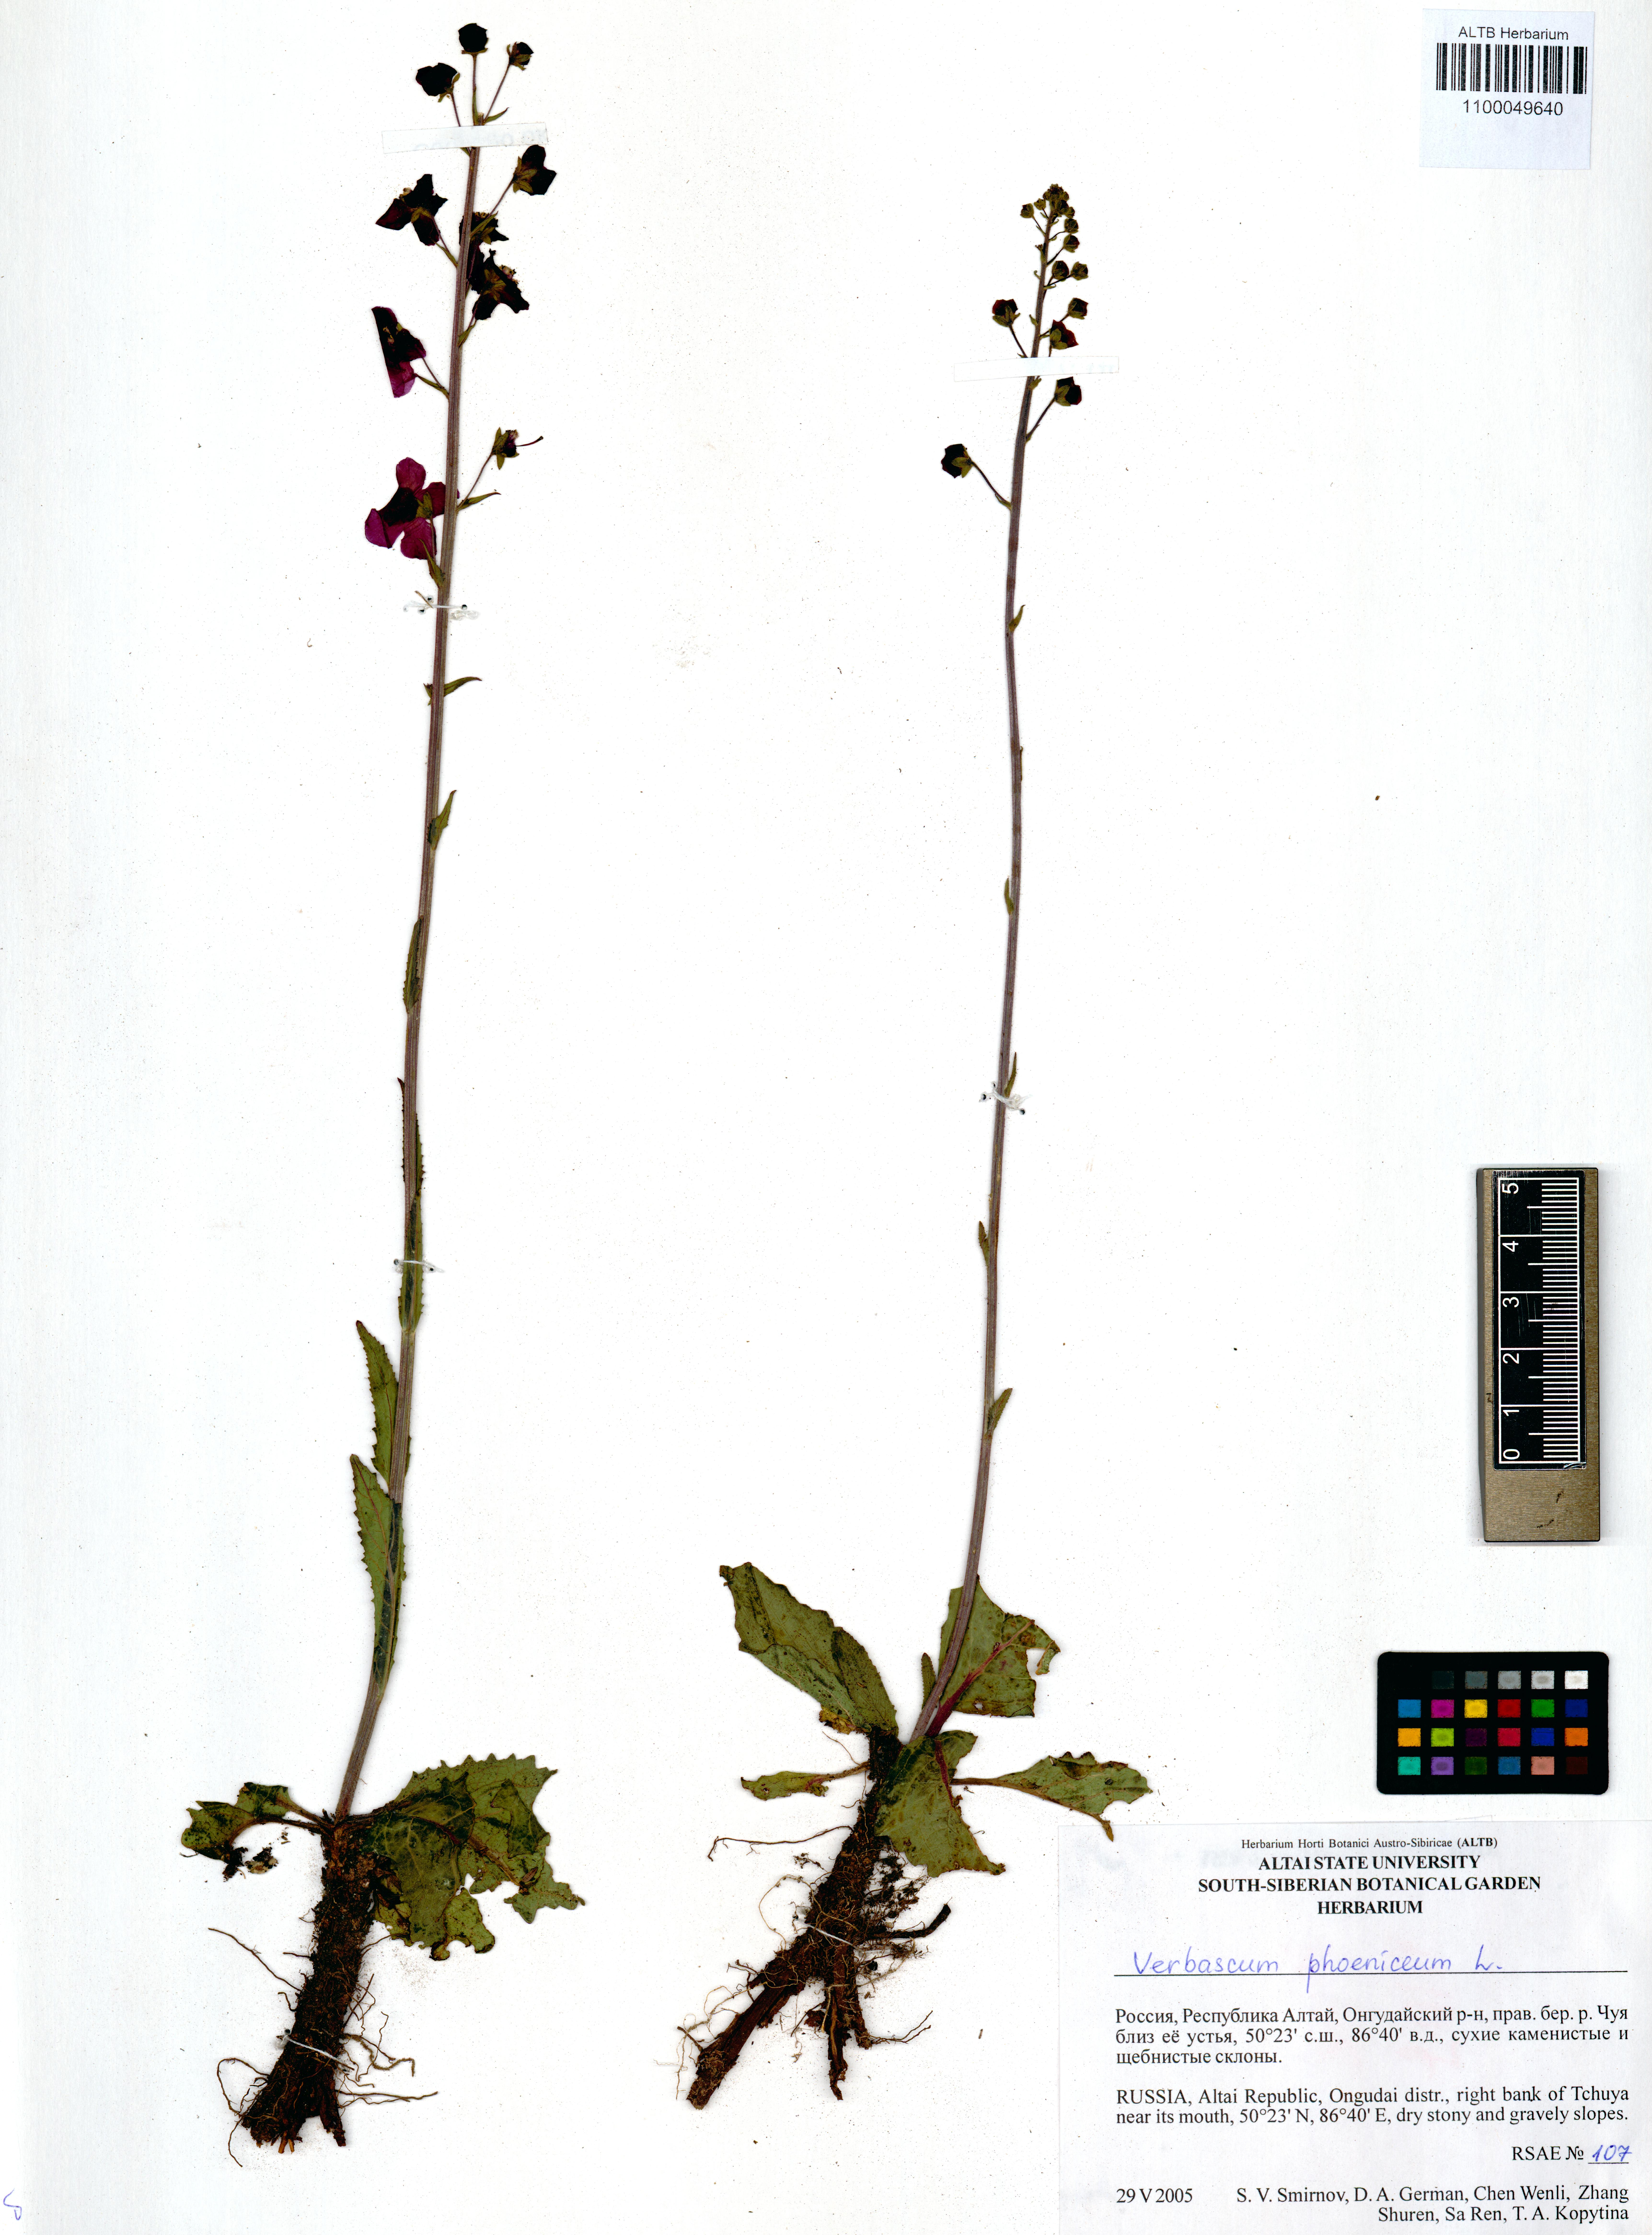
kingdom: Plantae
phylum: Tracheophyta
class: Magnoliopsida
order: Lamiales
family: Scrophulariaceae
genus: Verbascum
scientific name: Verbascum phoeniceum
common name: Purple mullein
